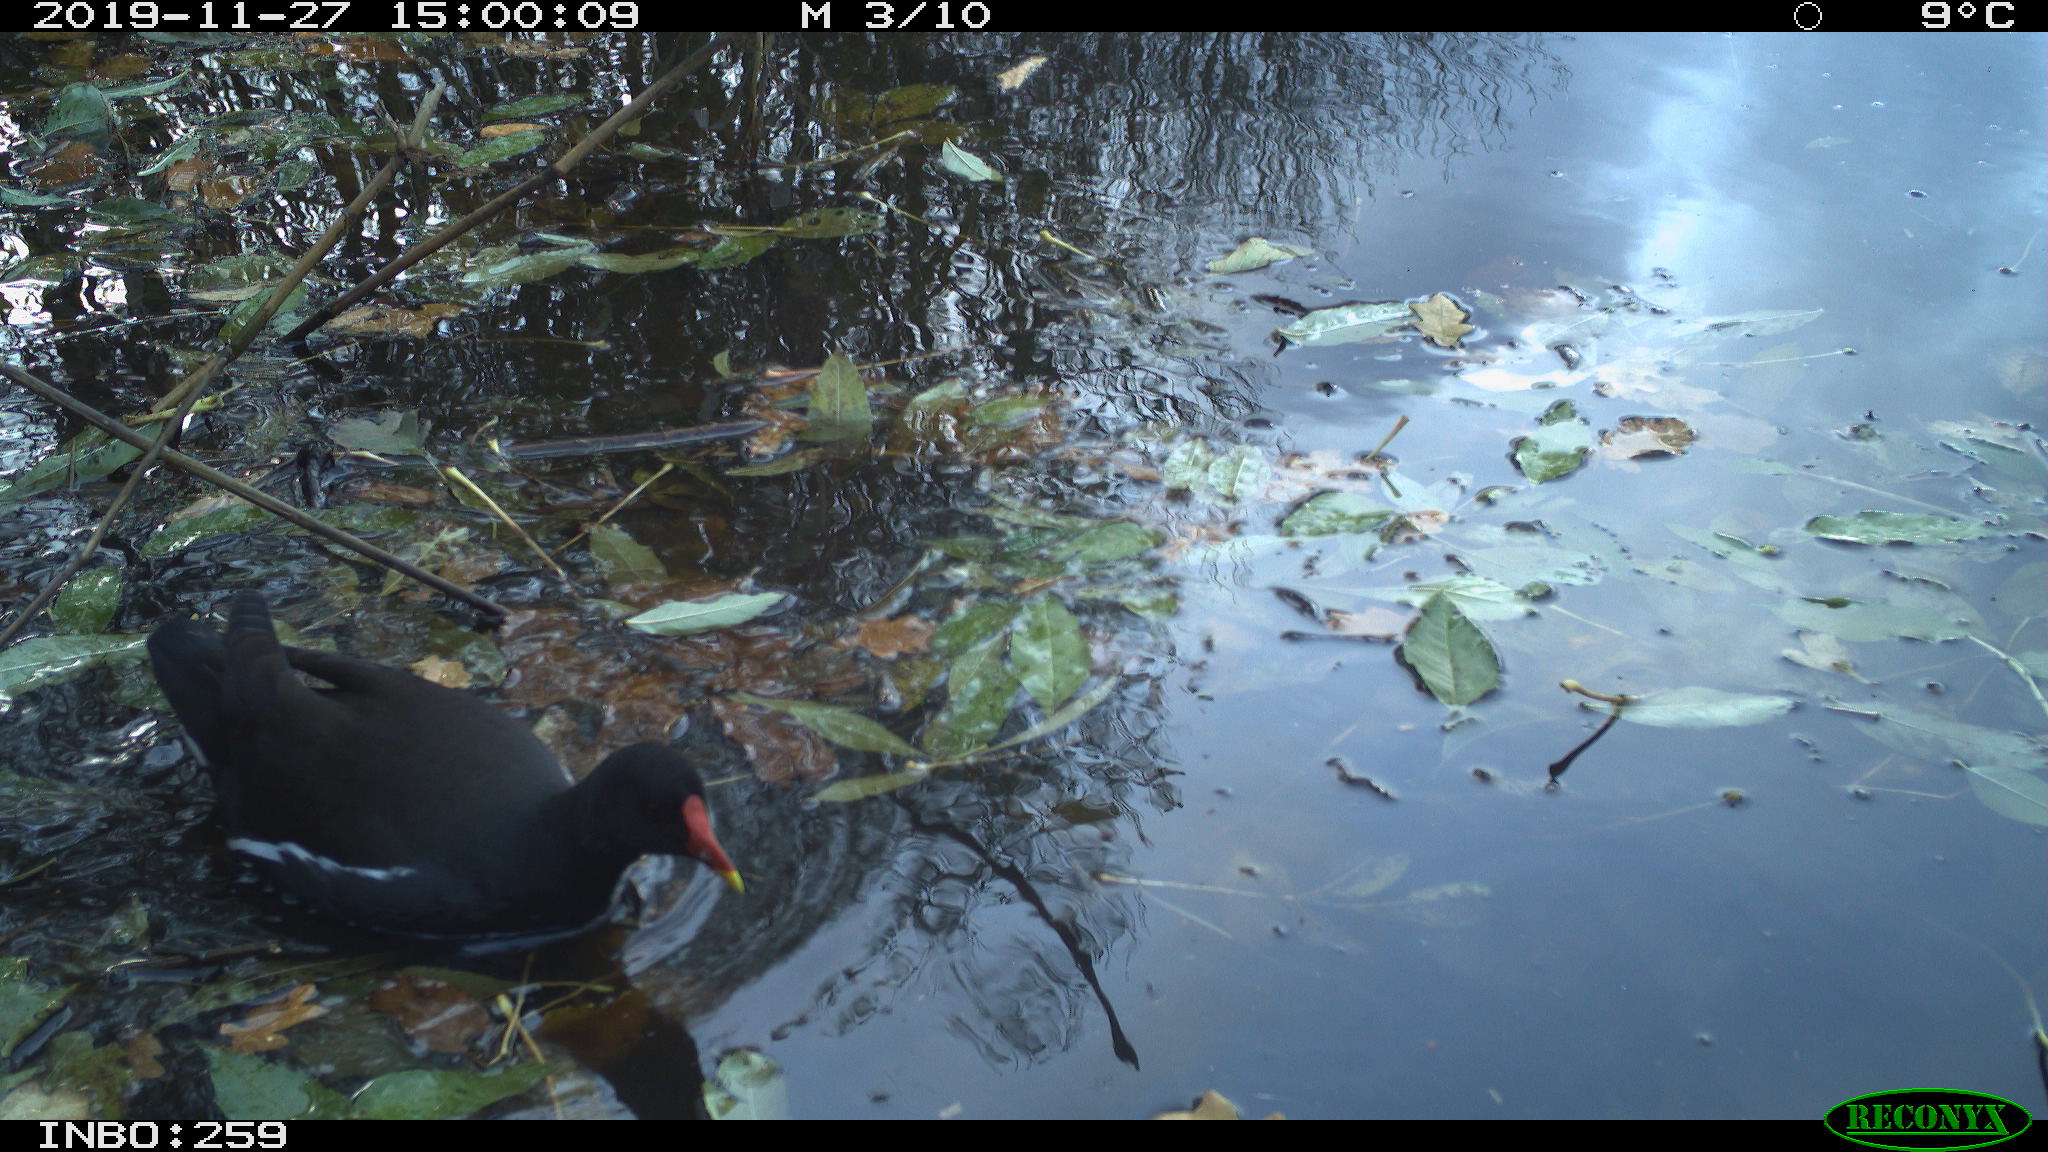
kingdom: Animalia
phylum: Chordata
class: Aves
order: Gruiformes
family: Rallidae
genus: Gallinula
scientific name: Gallinula chloropus
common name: Common moorhen
